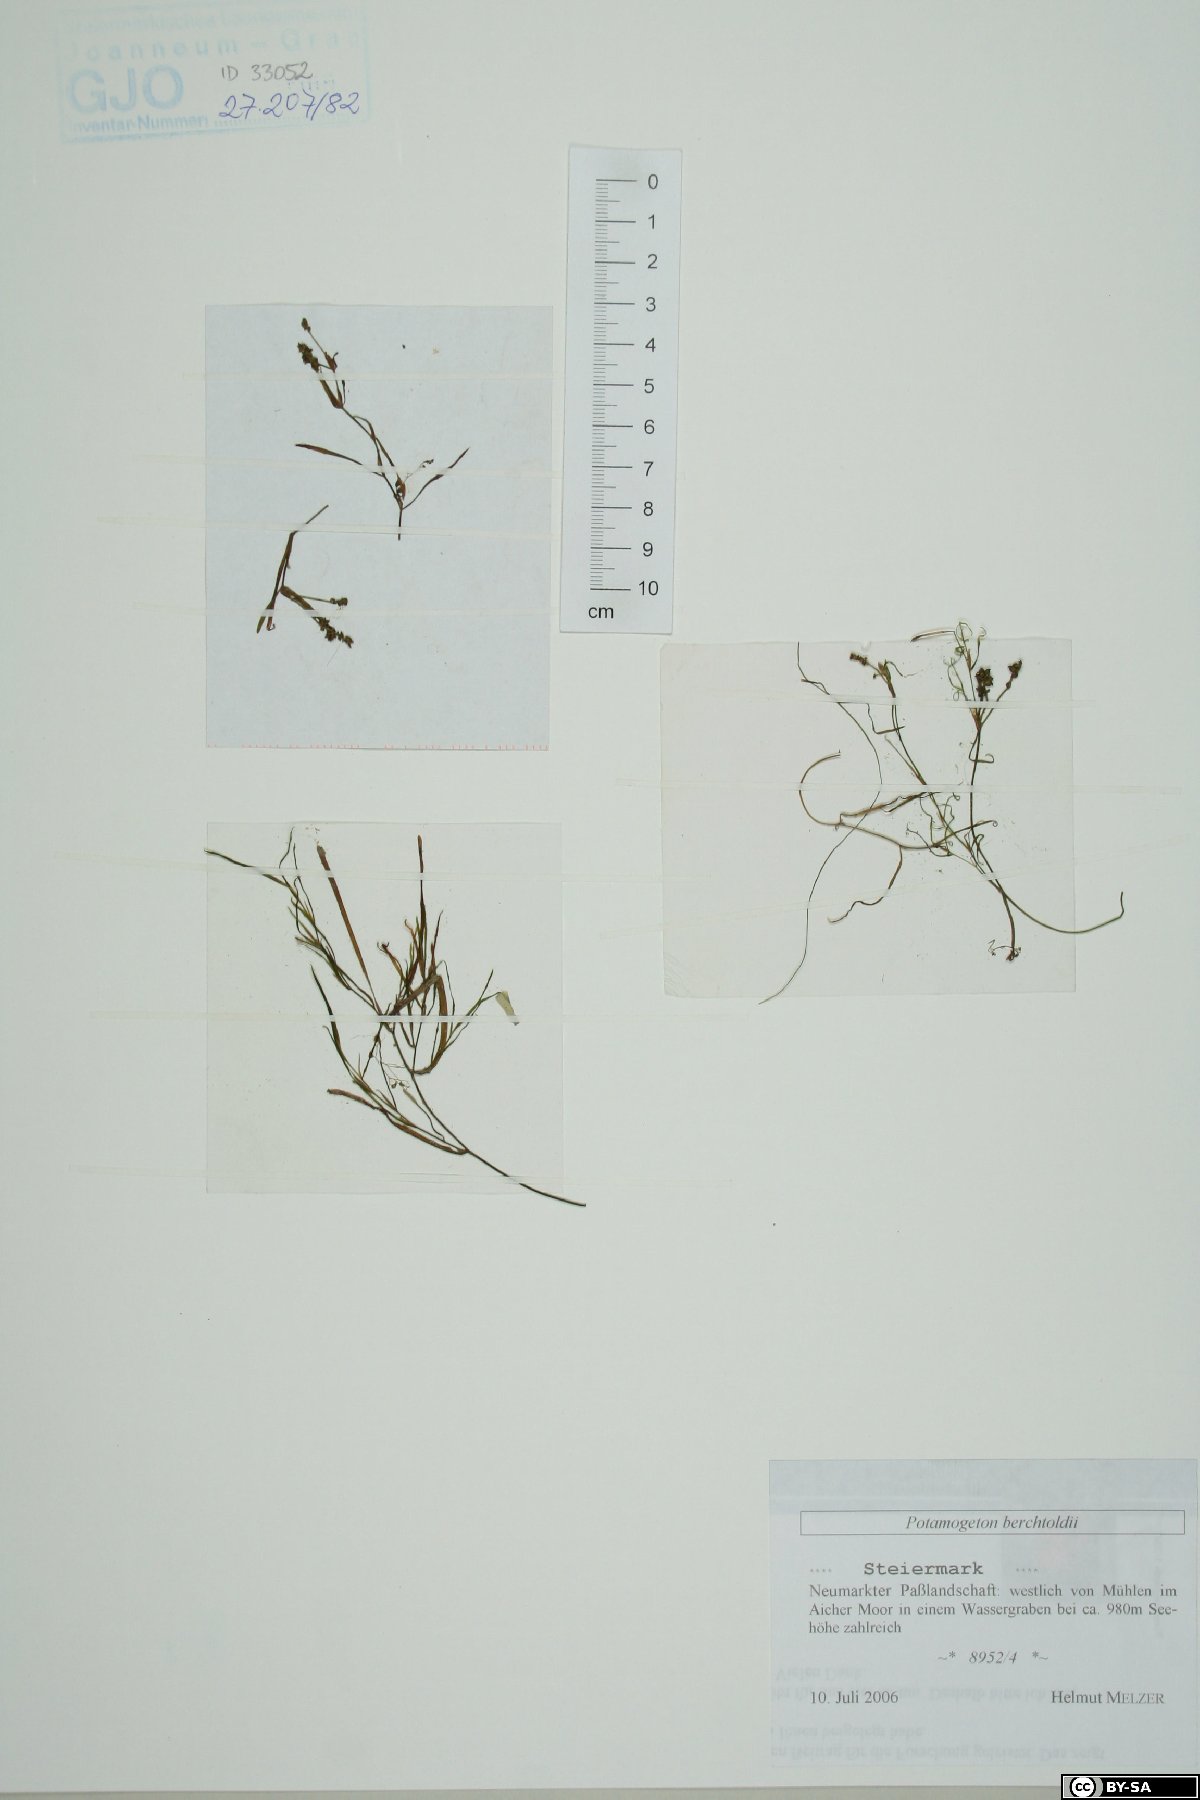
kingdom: Plantae
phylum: Tracheophyta
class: Liliopsida
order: Alismatales
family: Potamogetonaceae
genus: Potamogeton
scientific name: Potamogeton berchtoldii
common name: Small pondweed
